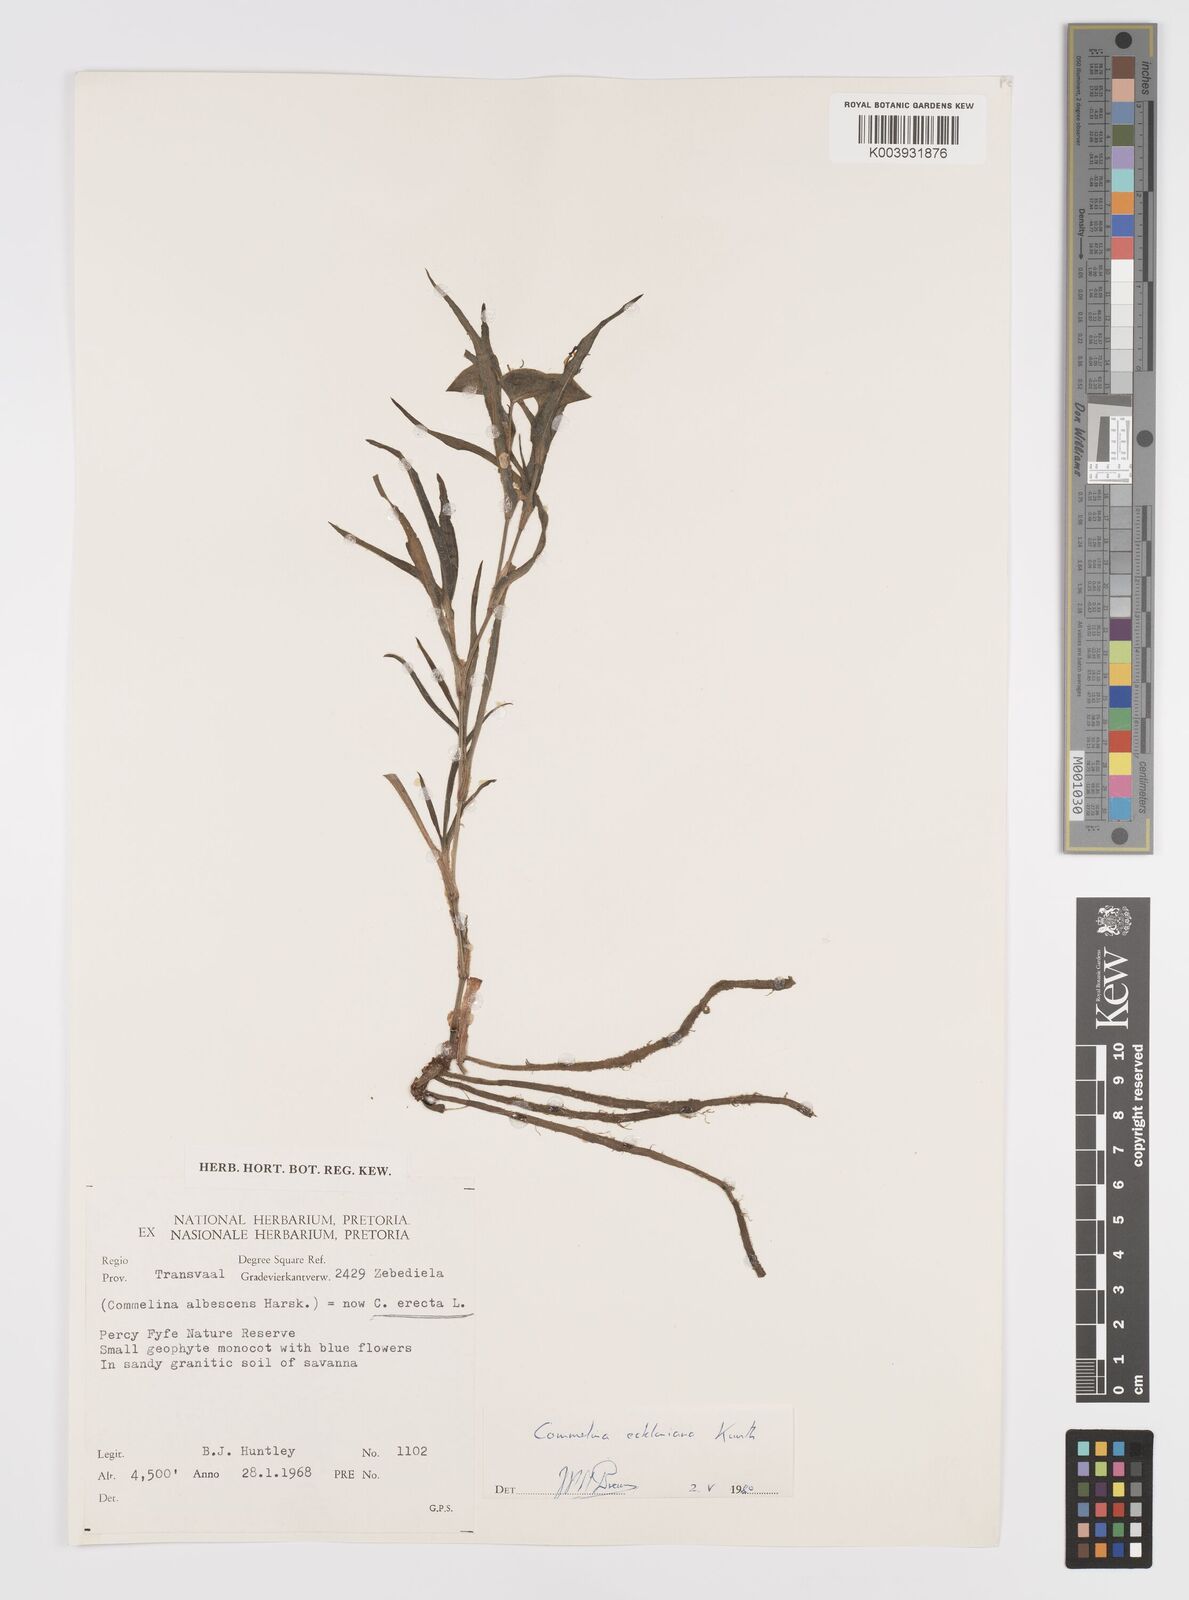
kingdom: Plantae
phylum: Tracheophyta
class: Liliopsida
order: Commelinales
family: Commelinaceae
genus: Commelina
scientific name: Commelina eckloniana
